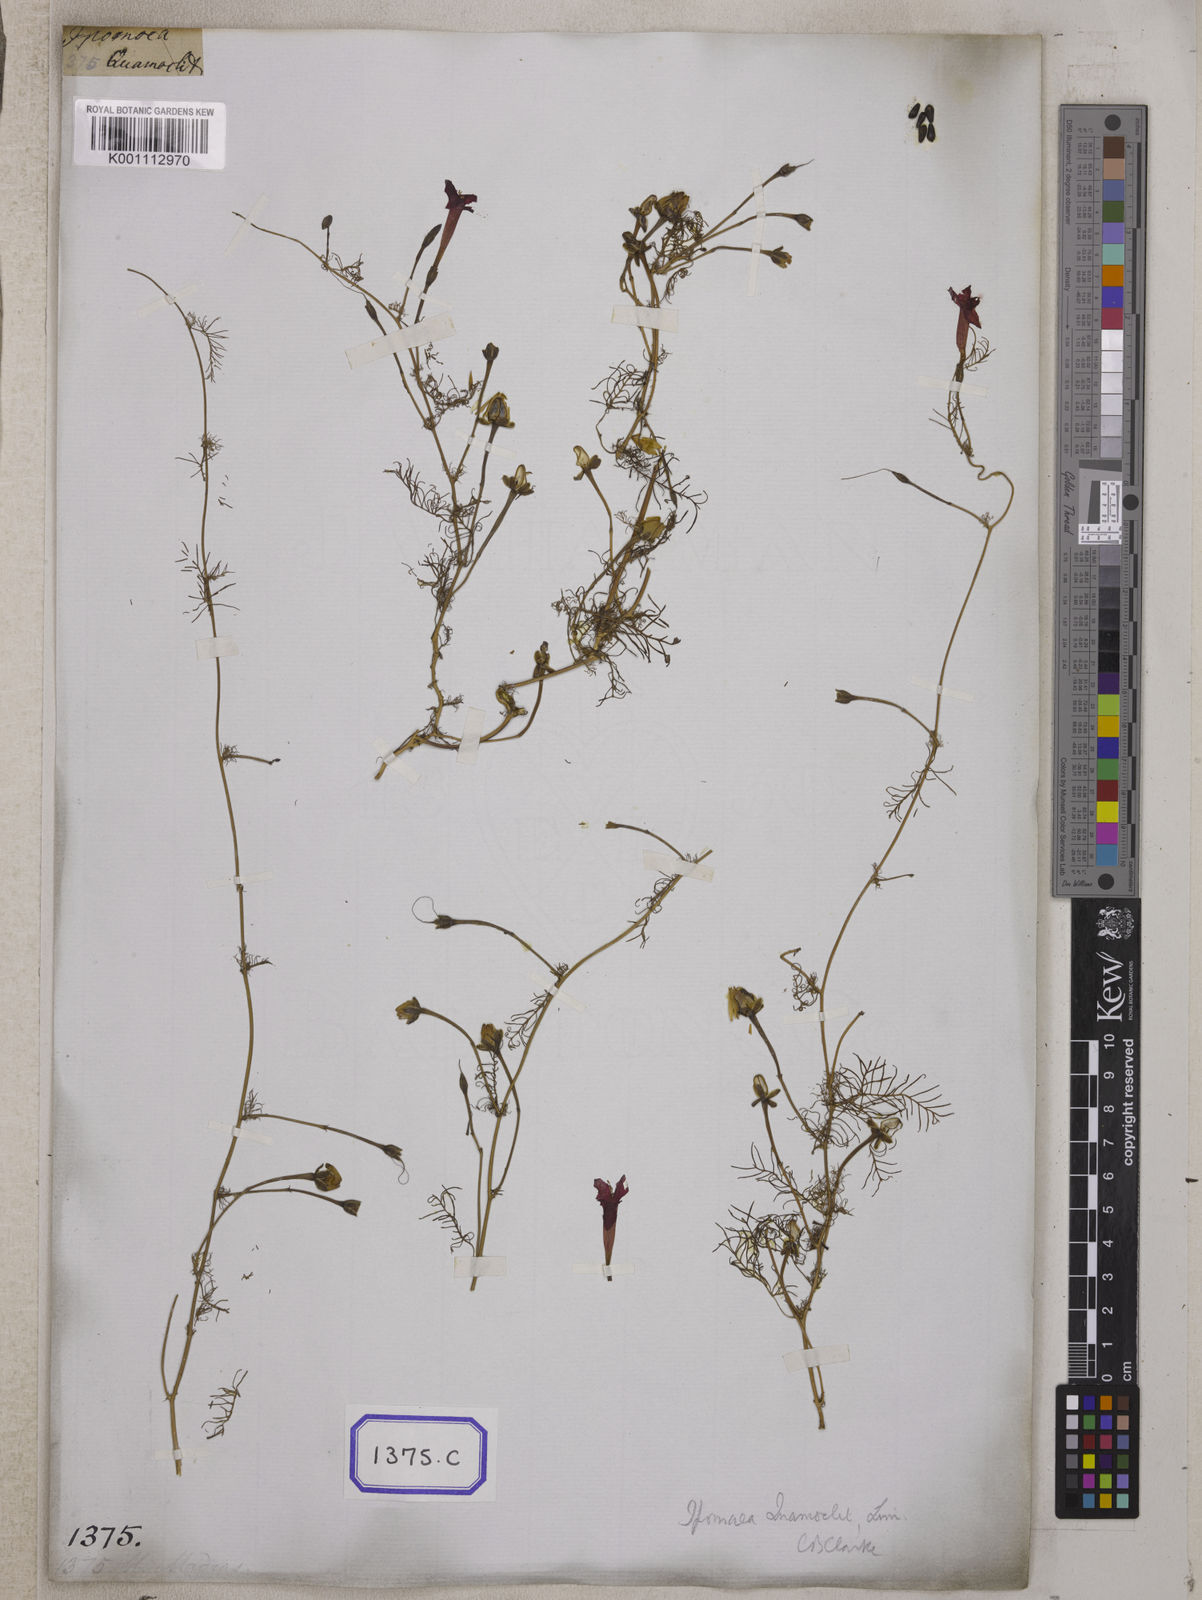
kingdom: Plantae
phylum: Tracheophyta
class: Magnoliopsida
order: Solanales
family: Convolvulaceae
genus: Ipomoea
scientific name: Ipomoea quamoclit
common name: Cypress vine
